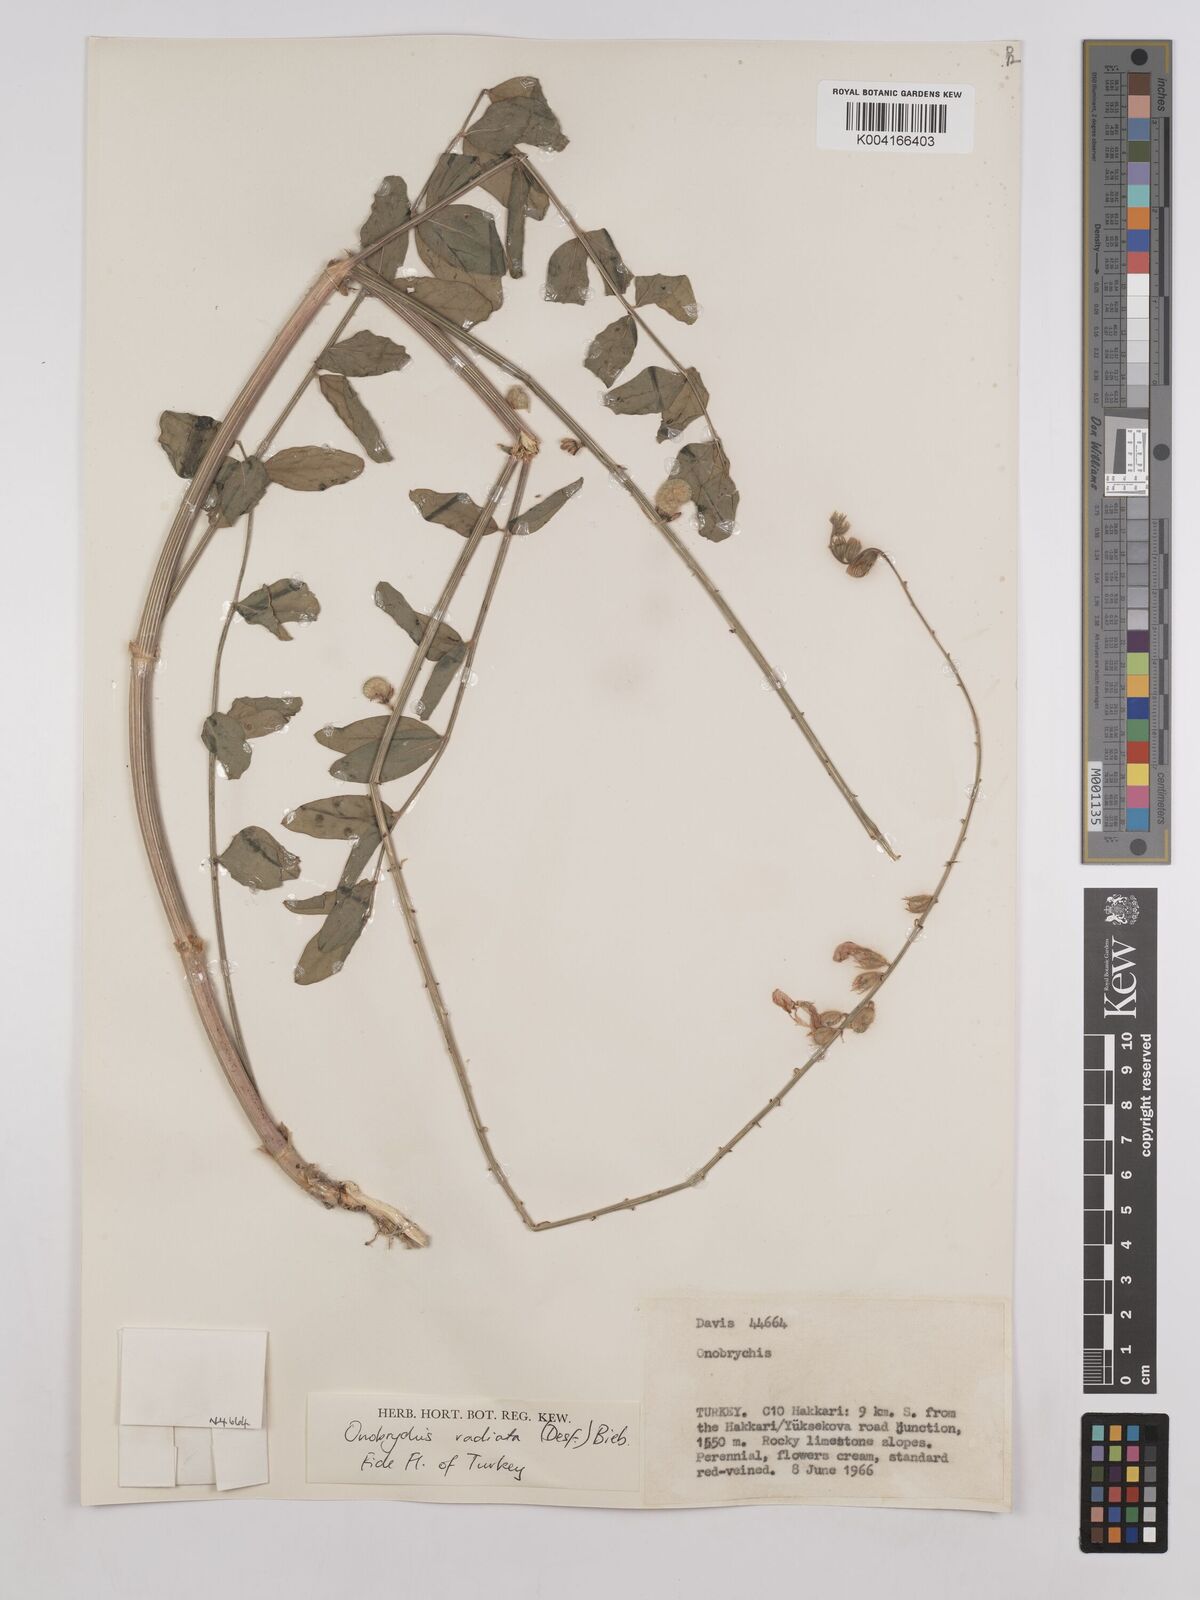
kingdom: Plantae
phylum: Tracheophyta
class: Magnoliopsida
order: Fabales
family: Fabaceae
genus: Onobrychis
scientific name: Onobrychis
